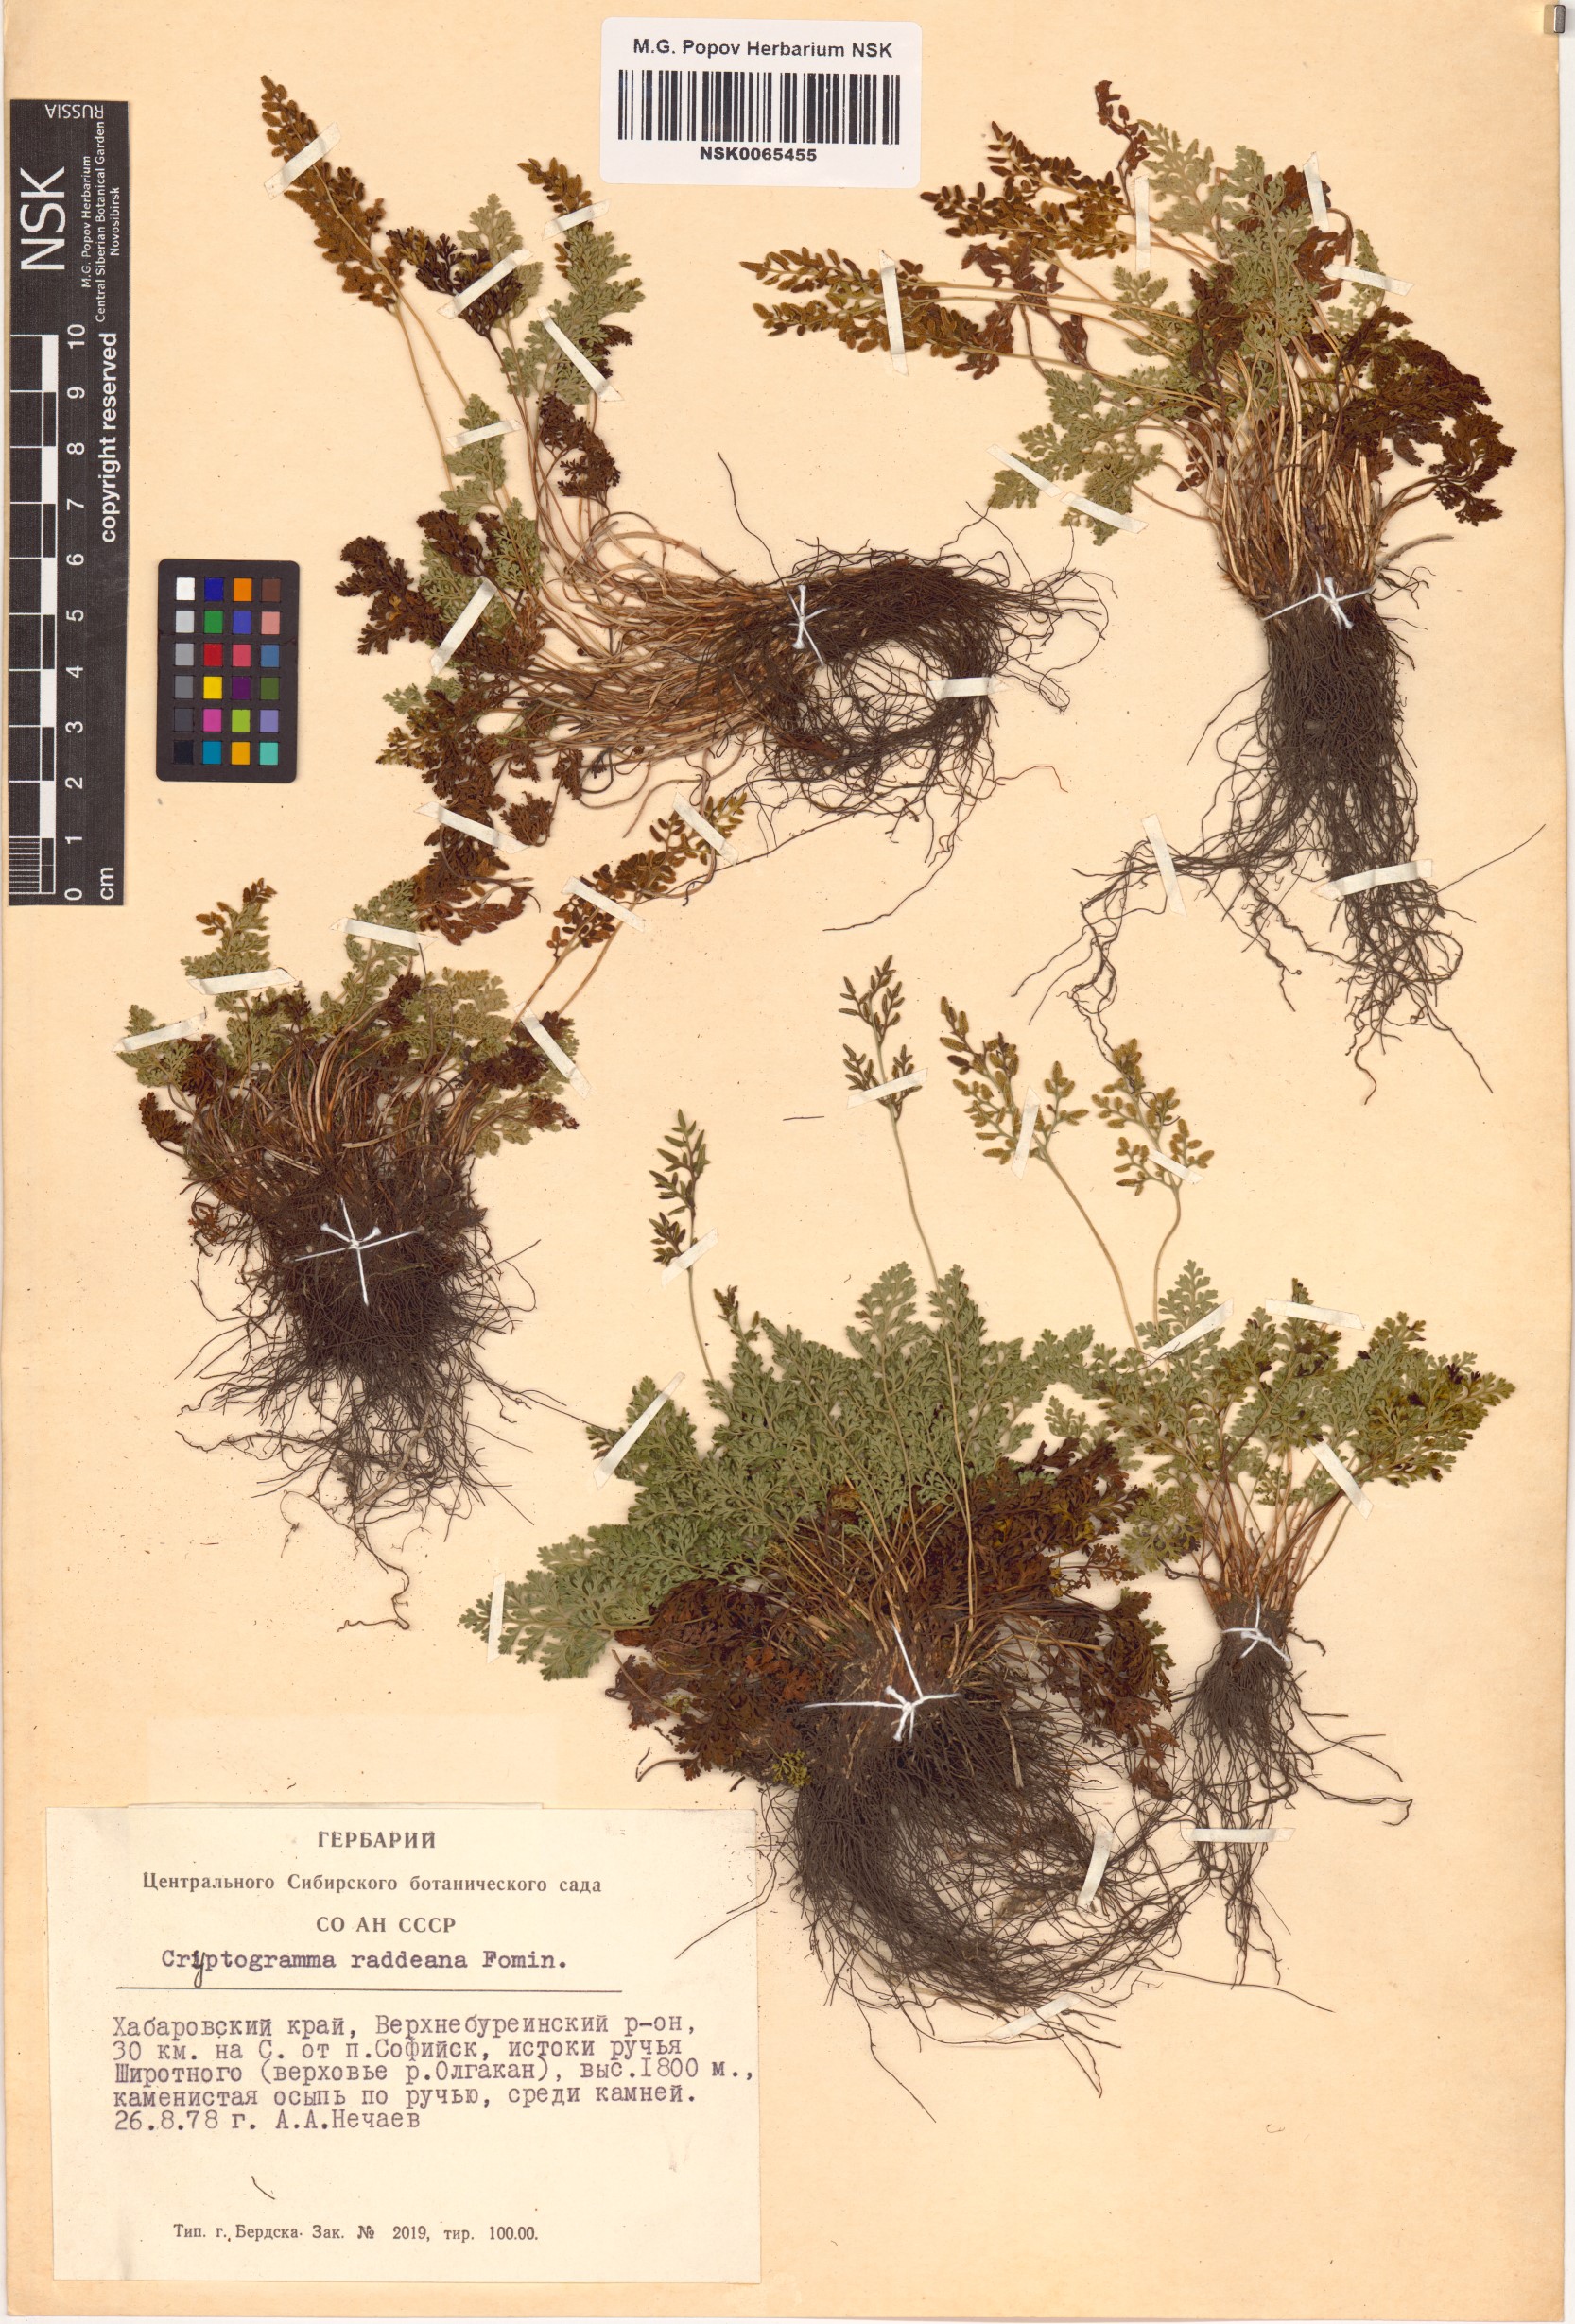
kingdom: Plantae
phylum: Tracheophyta
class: Polypodiopsida
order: Polypodiales
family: Pteridaceae
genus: Cryptogramma
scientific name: Cryptogramma brunoniana
